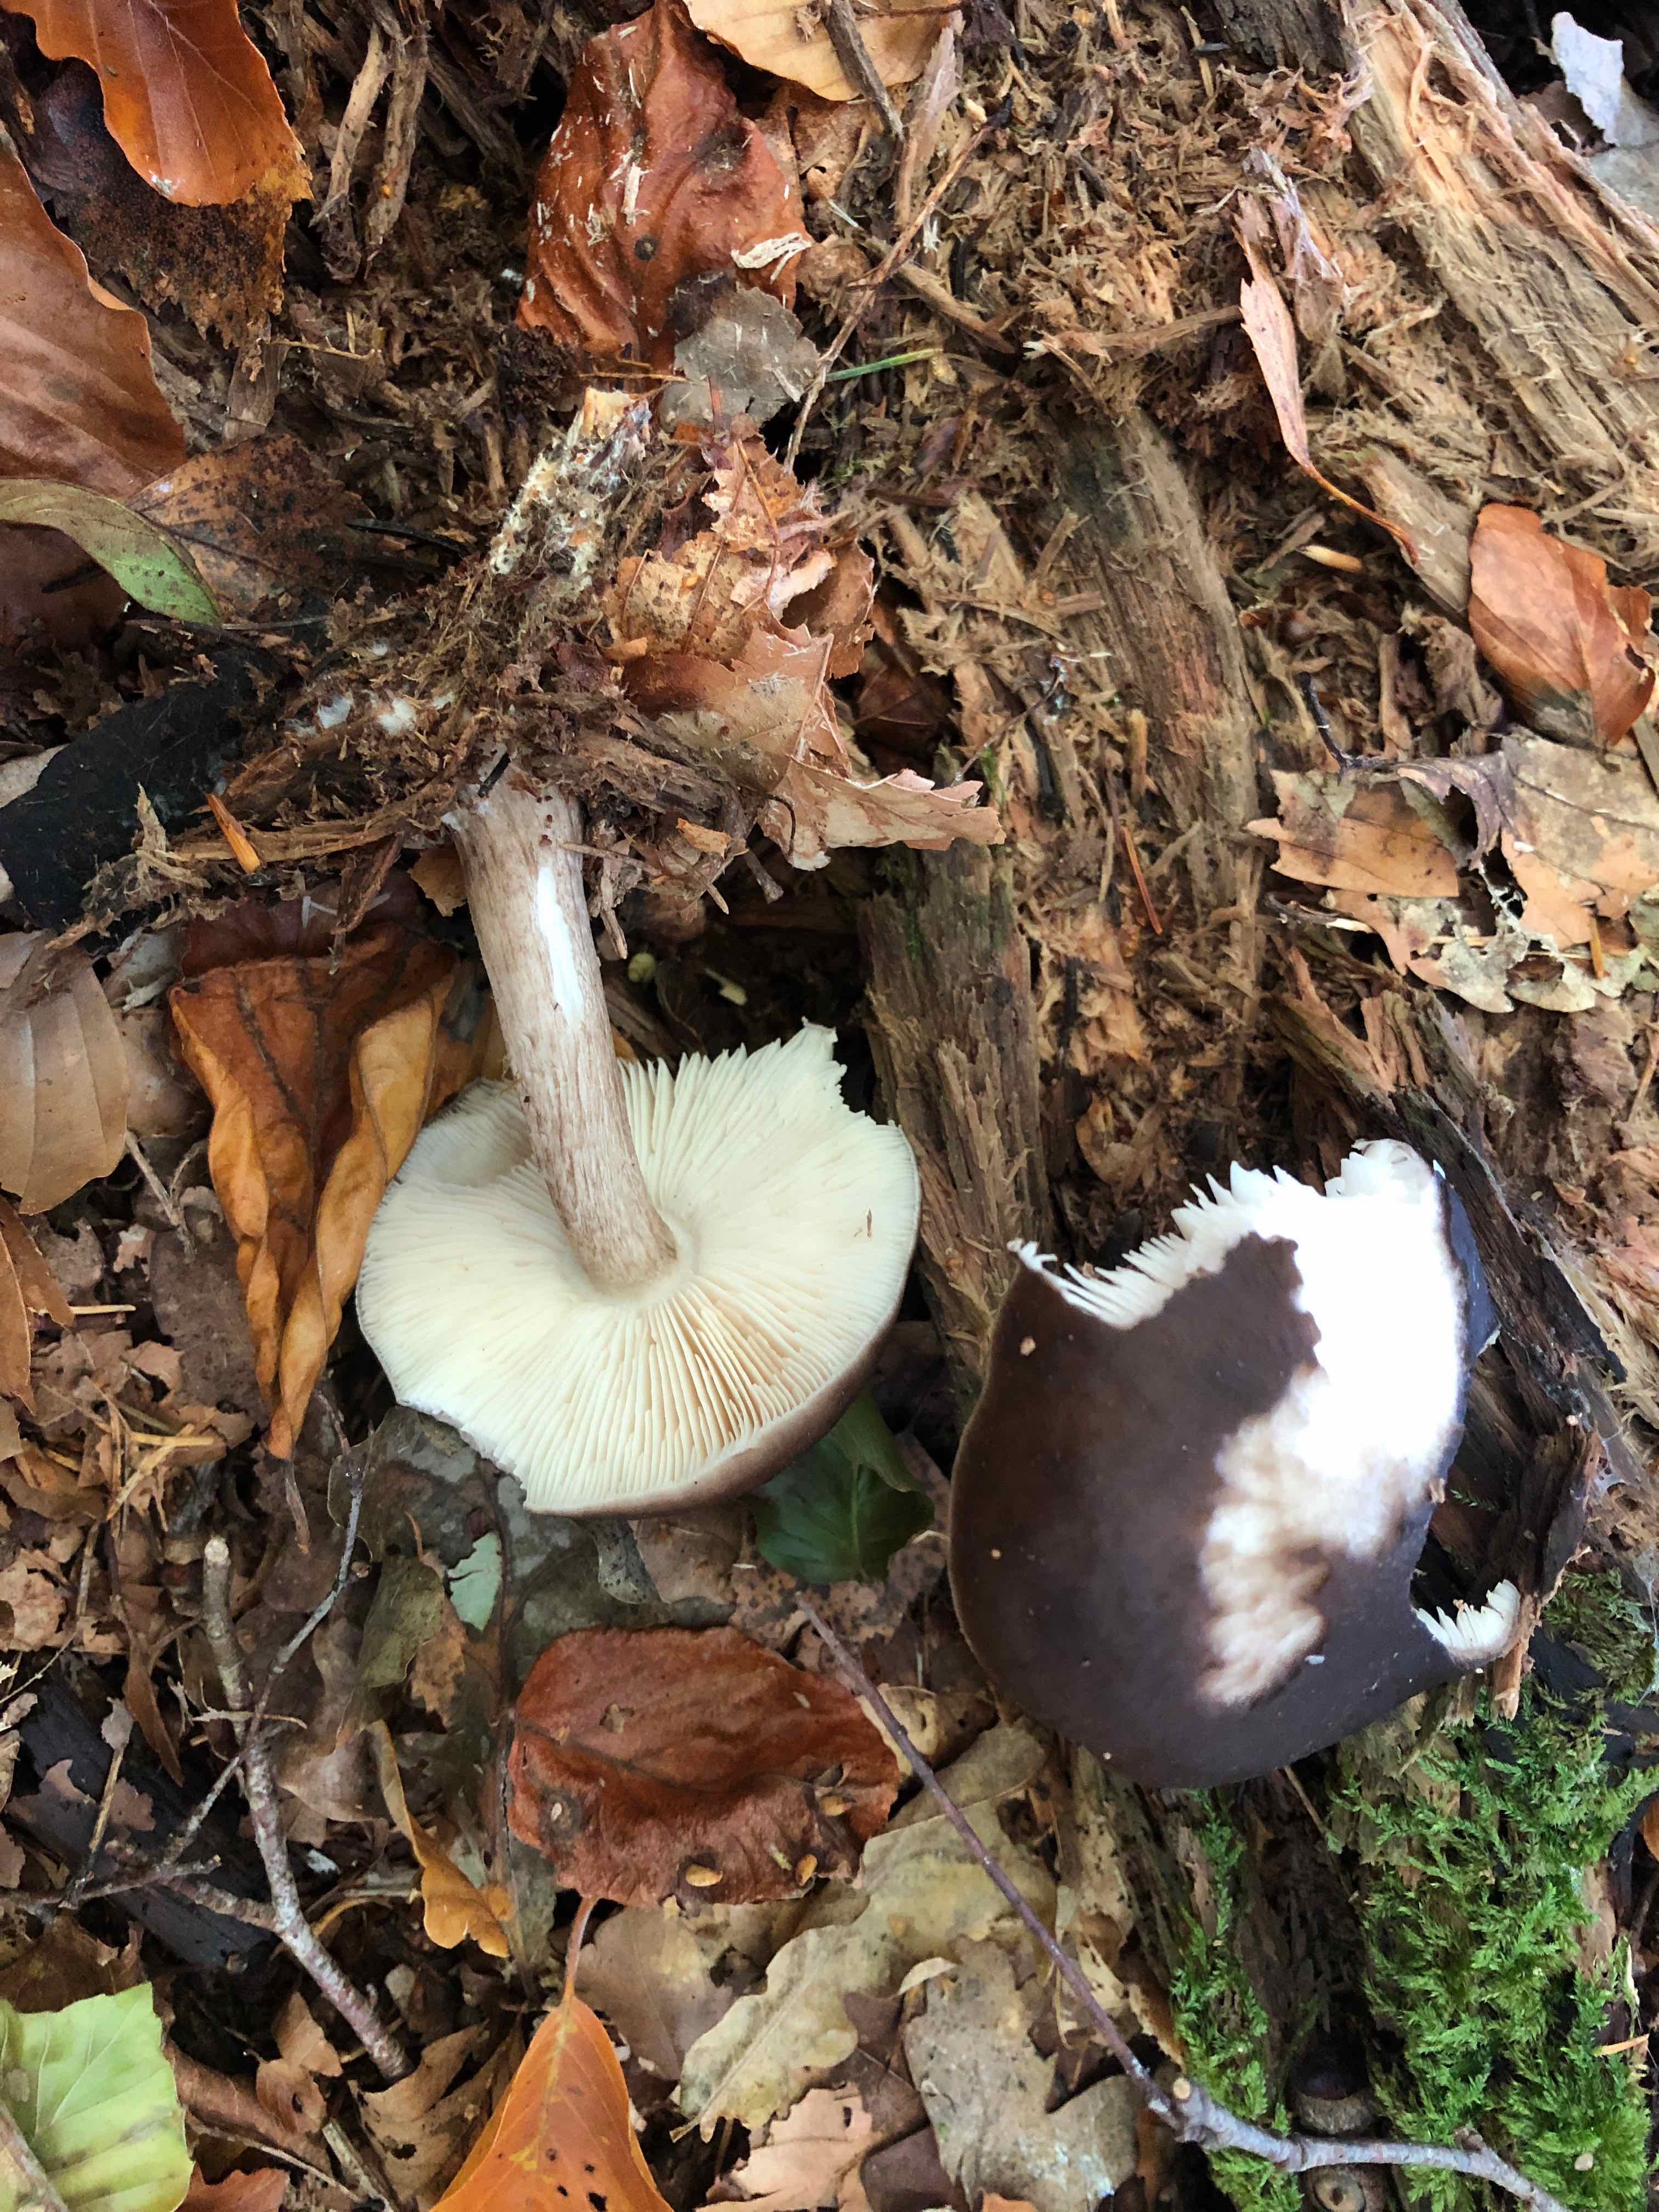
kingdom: Fungi
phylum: Basidiomycota
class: Agaricomycetes
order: Agaricales
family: Pluteaceae
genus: Pluteus
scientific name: Pluteus cervinus
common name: sodfarvet skærmhat
